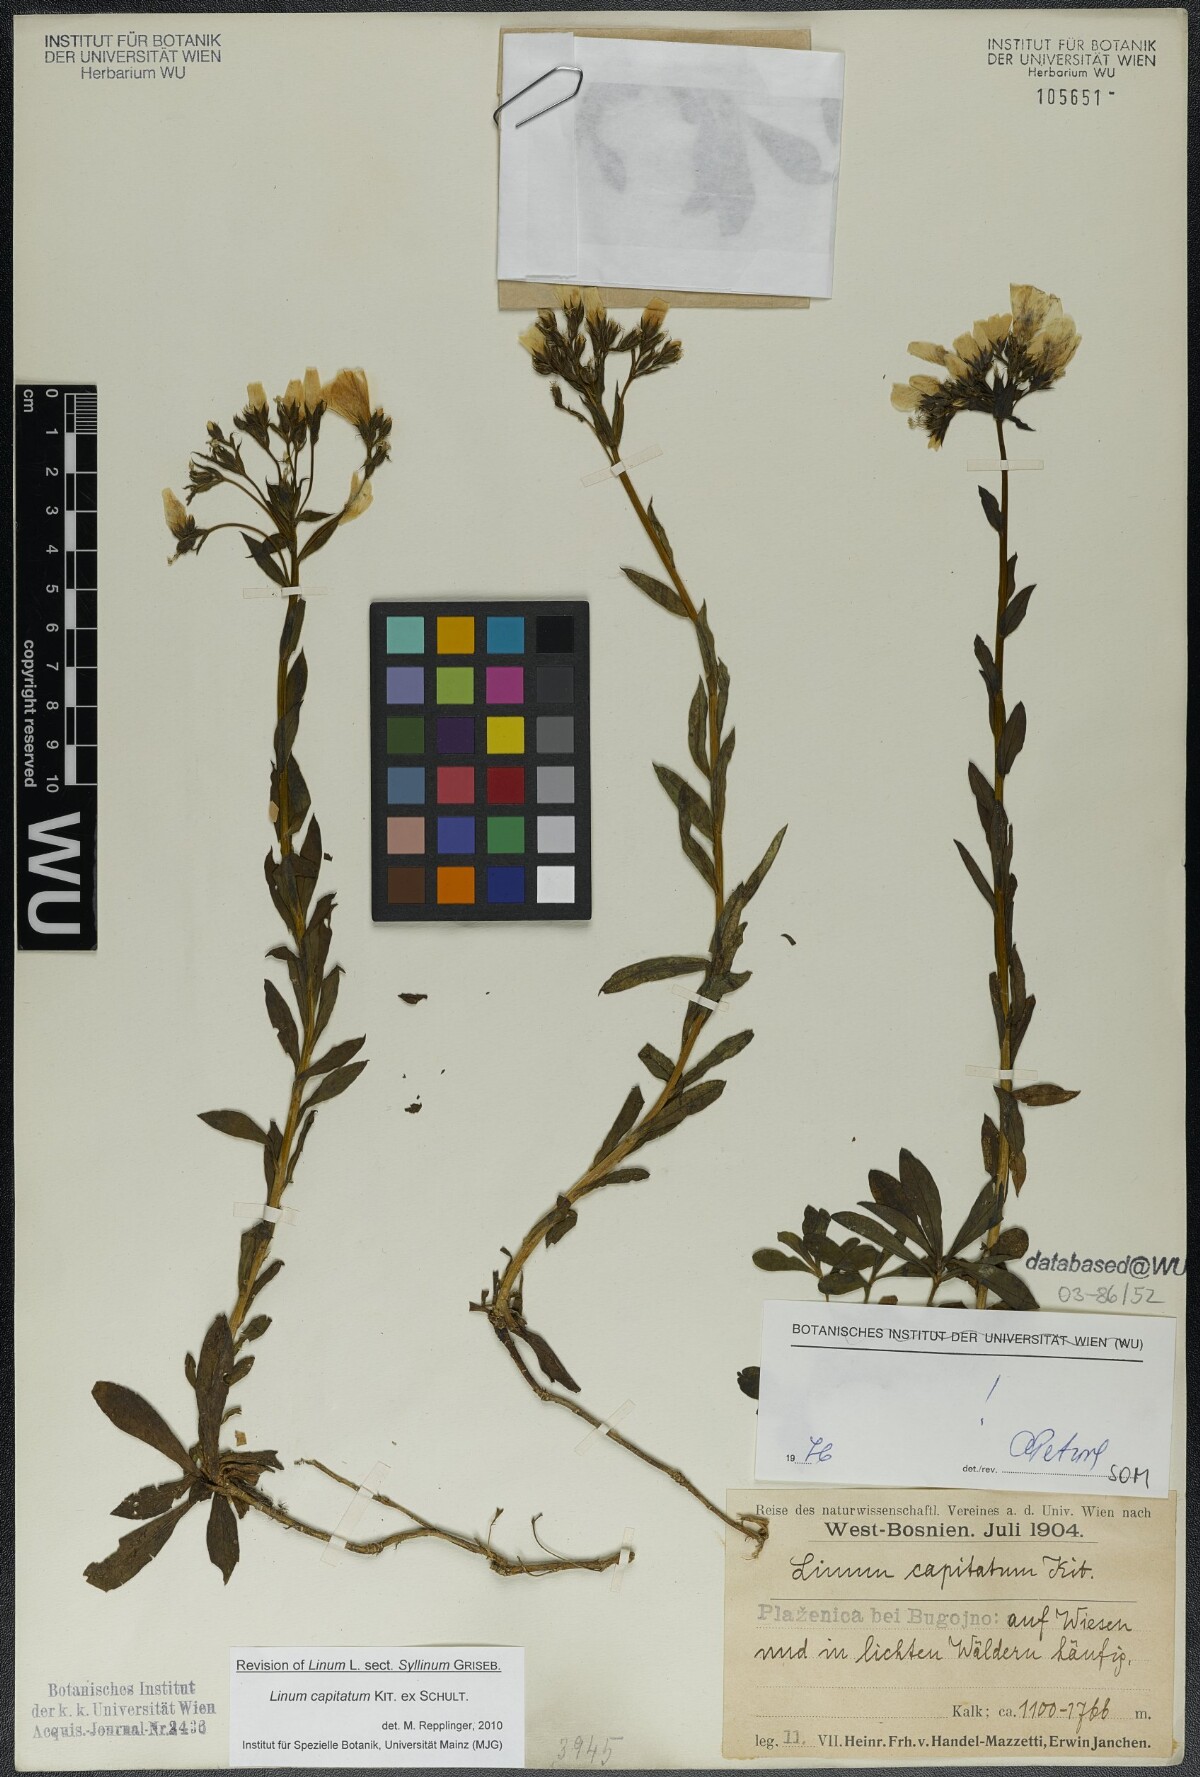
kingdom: Plantae
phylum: Tracheophyta
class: Magnoliopsida
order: Malpighiales
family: Linaceae
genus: Linum
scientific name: Linum capitatum
